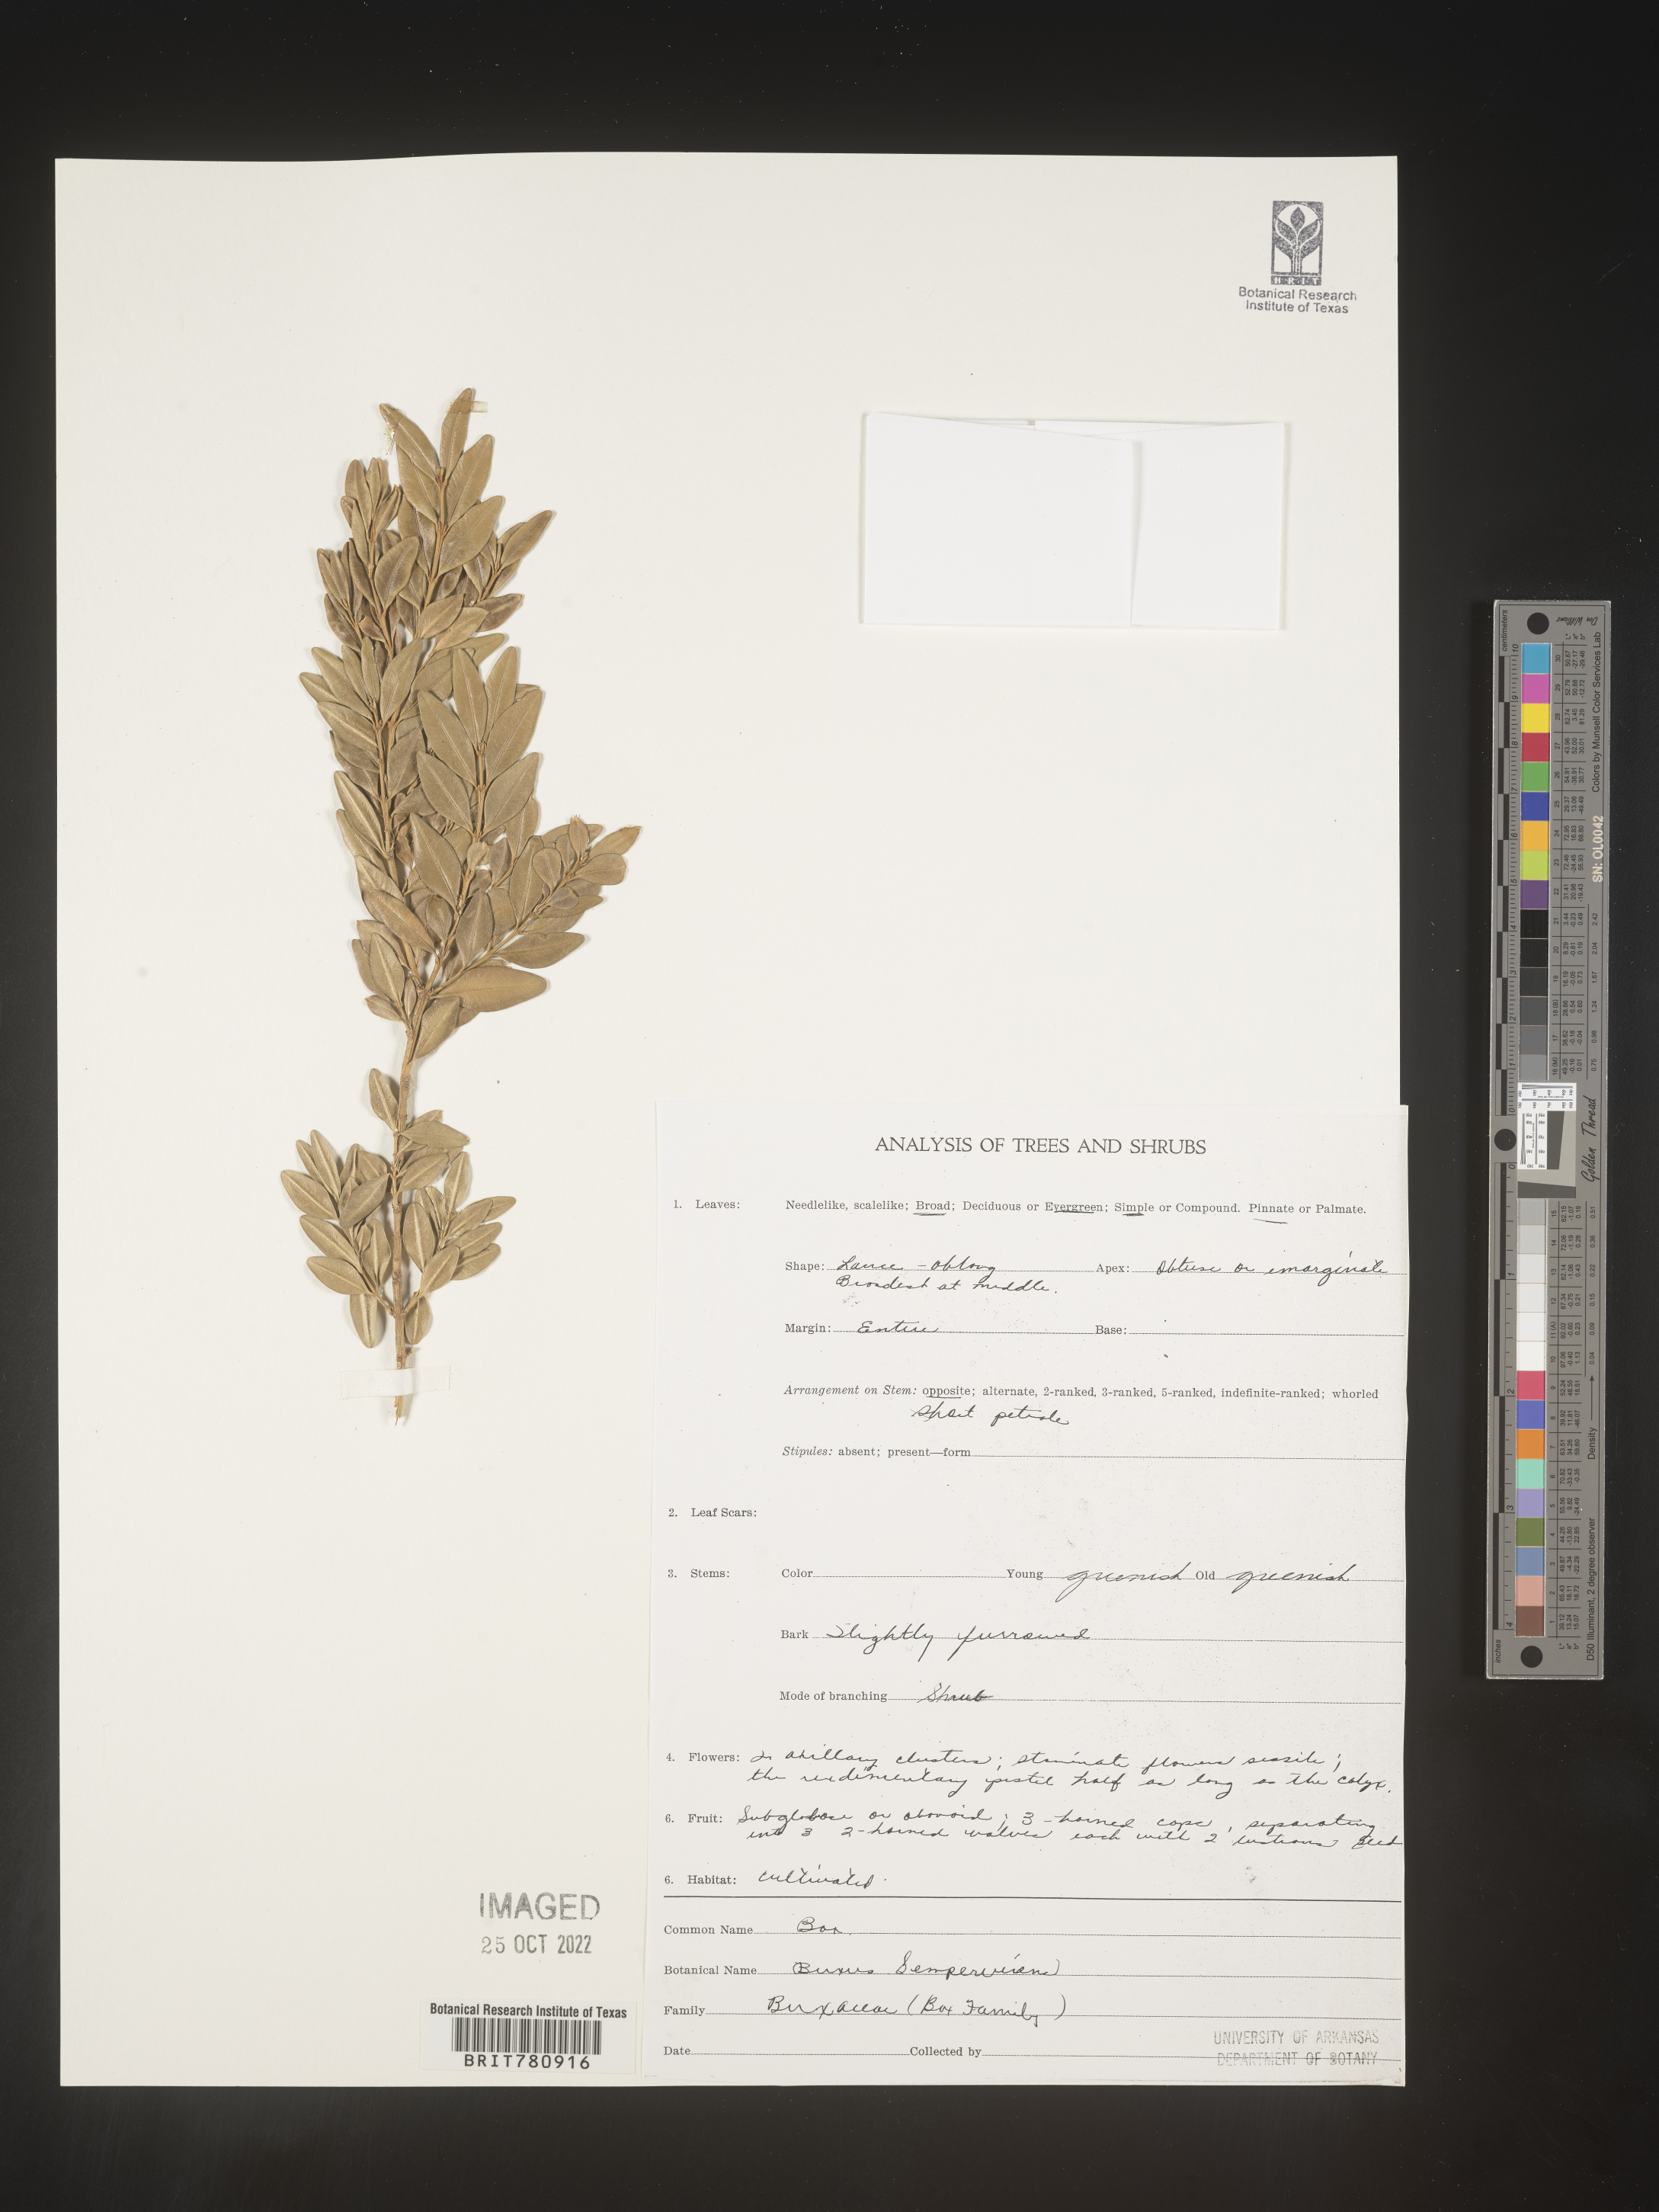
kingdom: Plantae
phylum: Tracheophyta
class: Magnoliopsida
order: Buxales
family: Buxaceae
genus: Buxus
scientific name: Buxus
